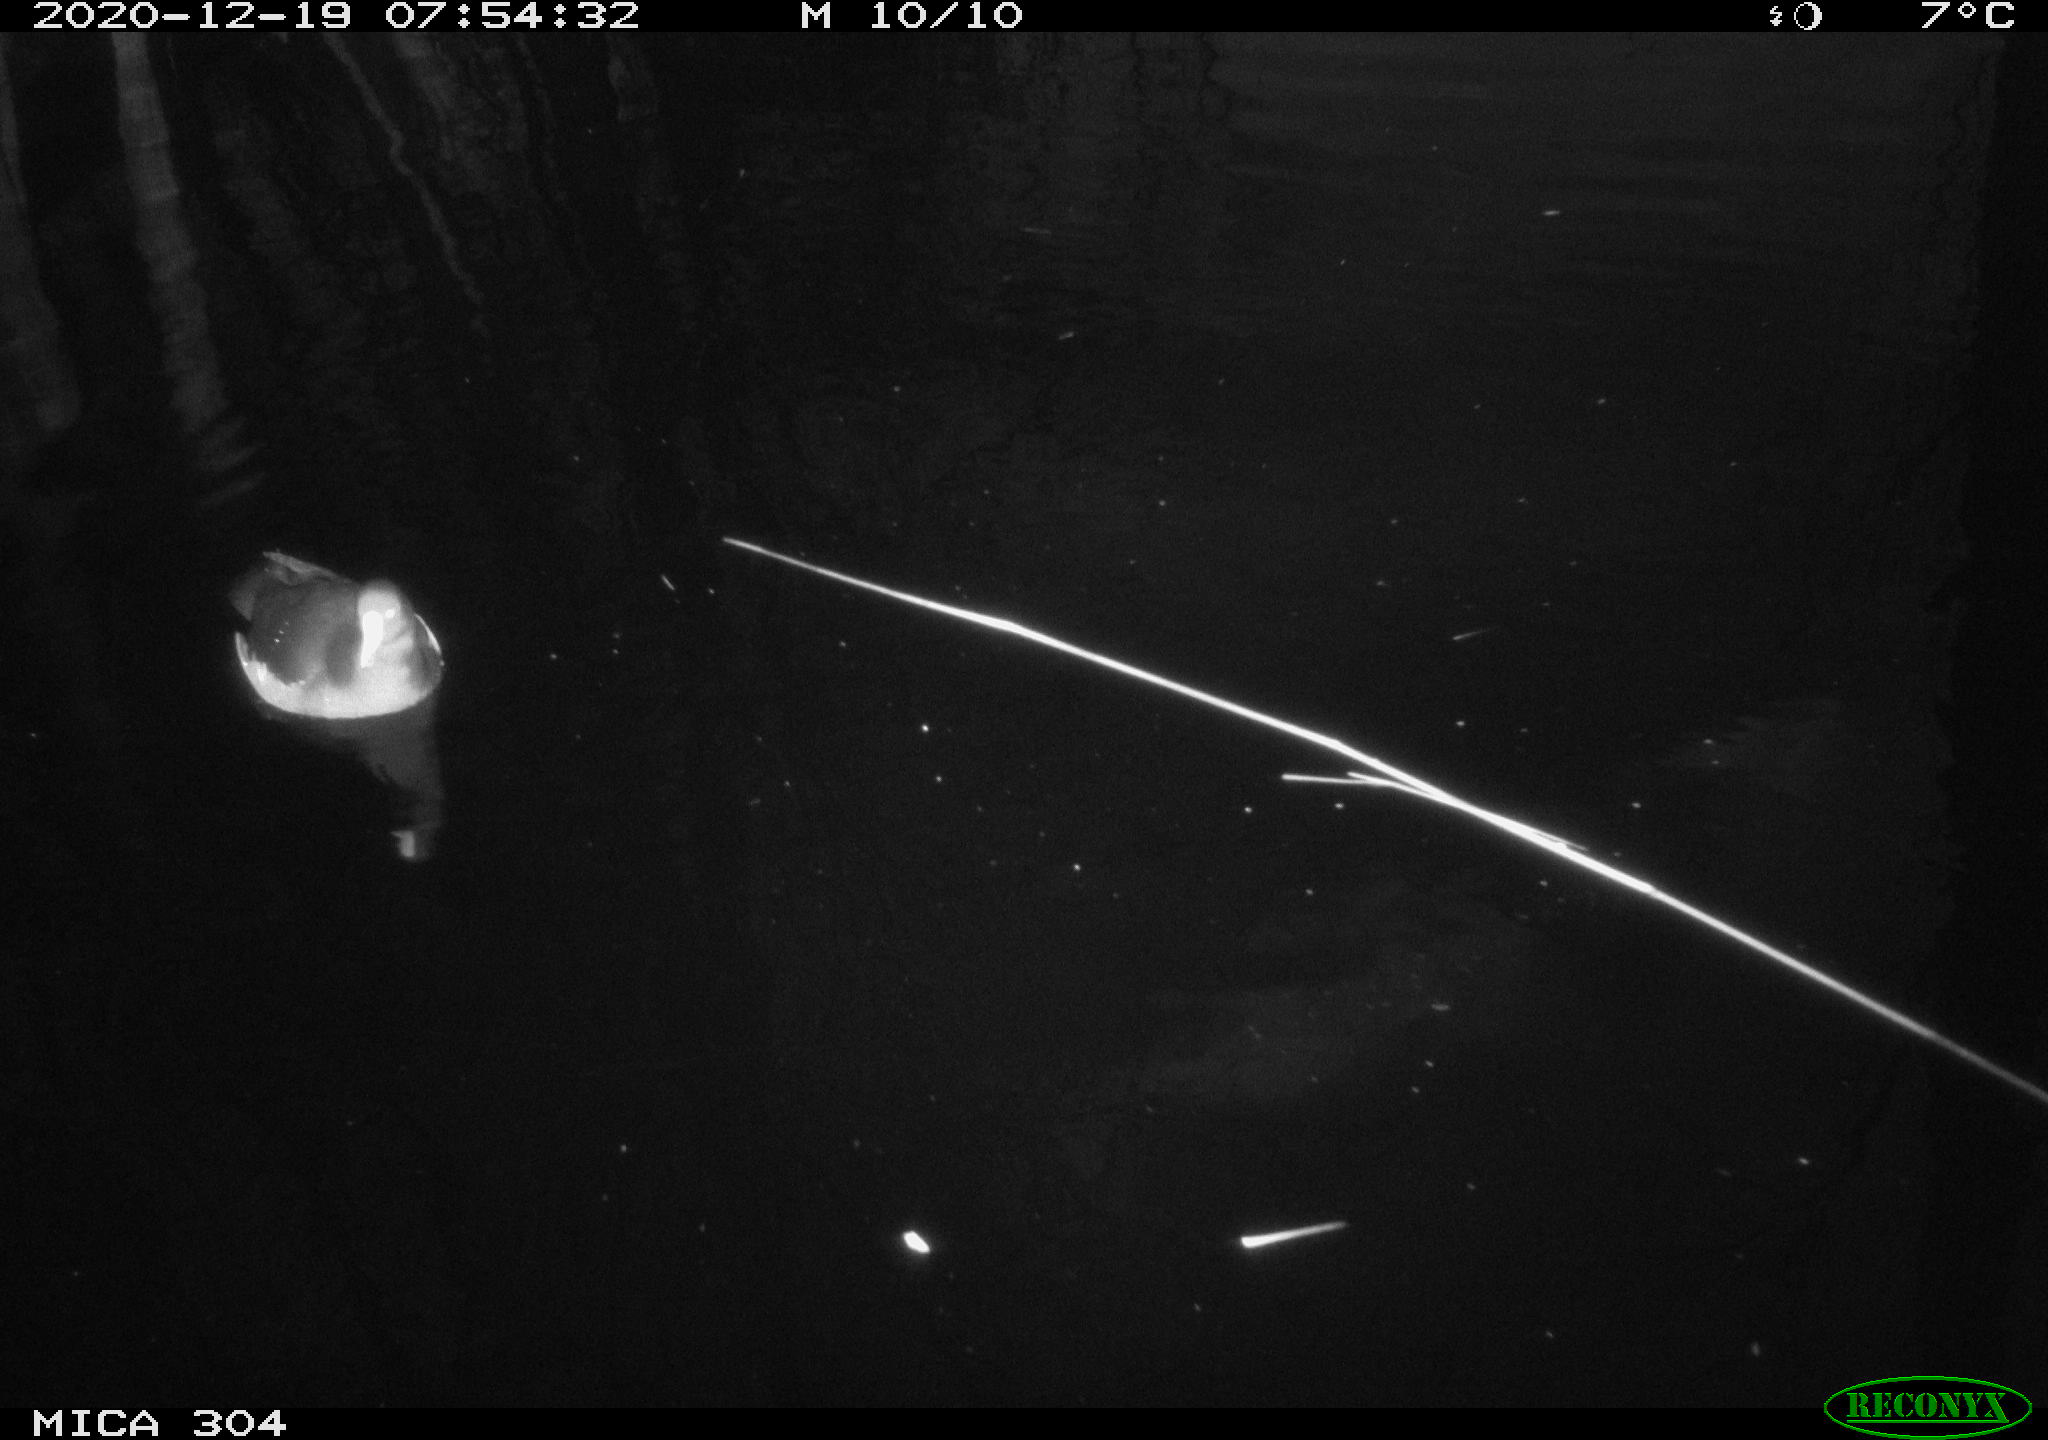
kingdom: Animalia
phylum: Chordata
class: Aves
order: Gruiformes
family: Rallidae
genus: Gallinula
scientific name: Gallinula chloropus
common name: Common moorhen
